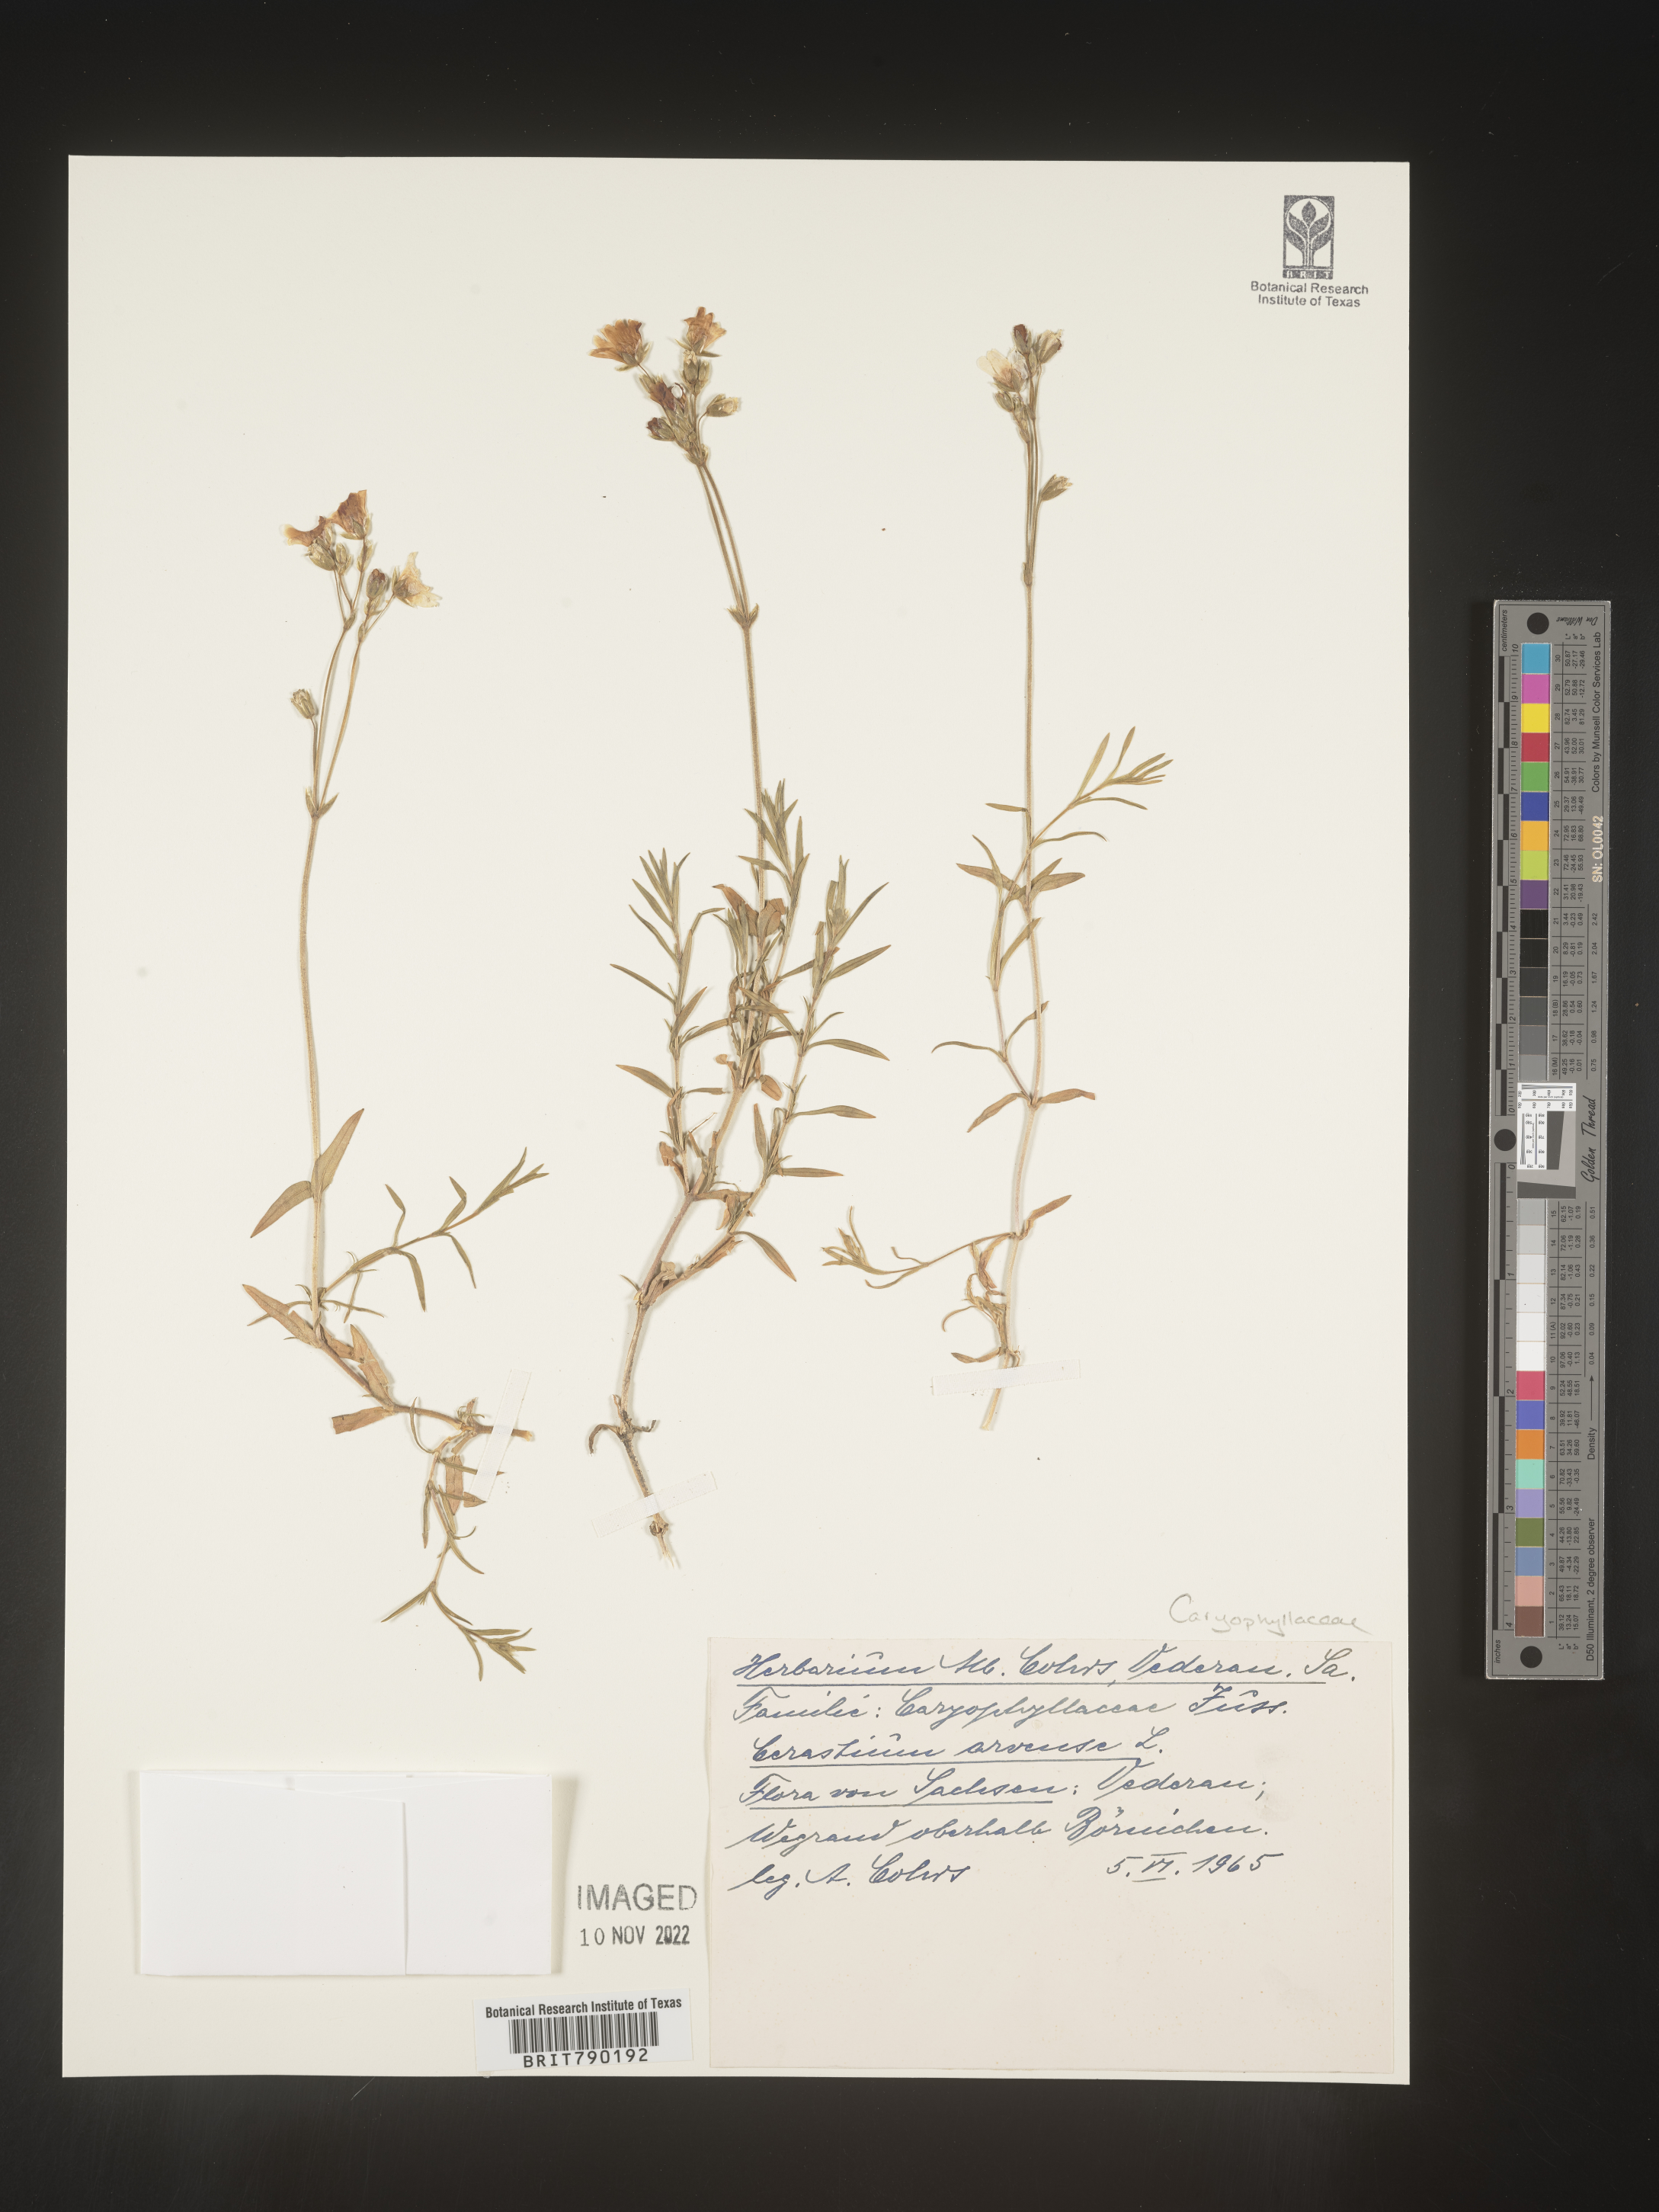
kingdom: Plantae
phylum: Tracheophyta
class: Magnoliopsida
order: Caryophyllales
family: Caryophyllaceae
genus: Cerastium
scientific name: Cerastium
